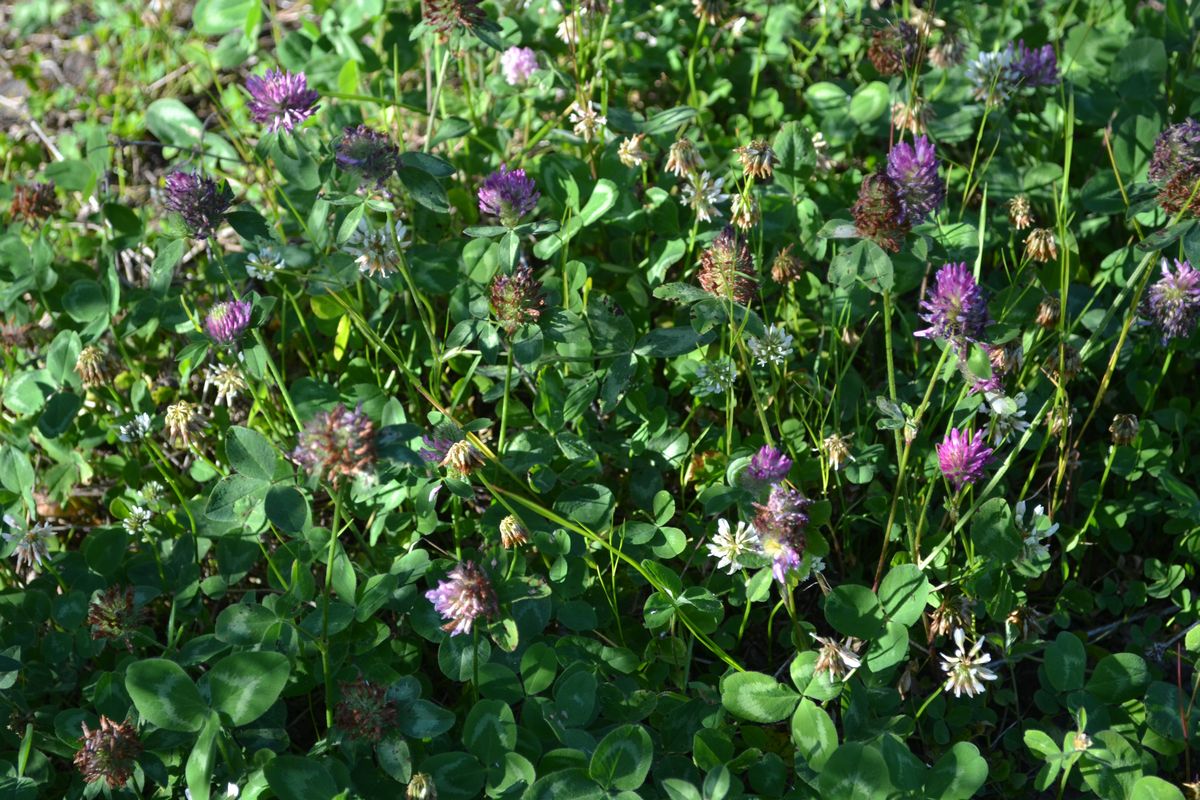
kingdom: Plantae
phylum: Tracheophyta
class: Magnoliopsida
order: Fabales
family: Fabaceae
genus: Trifolium
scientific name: Trifolium pratense
